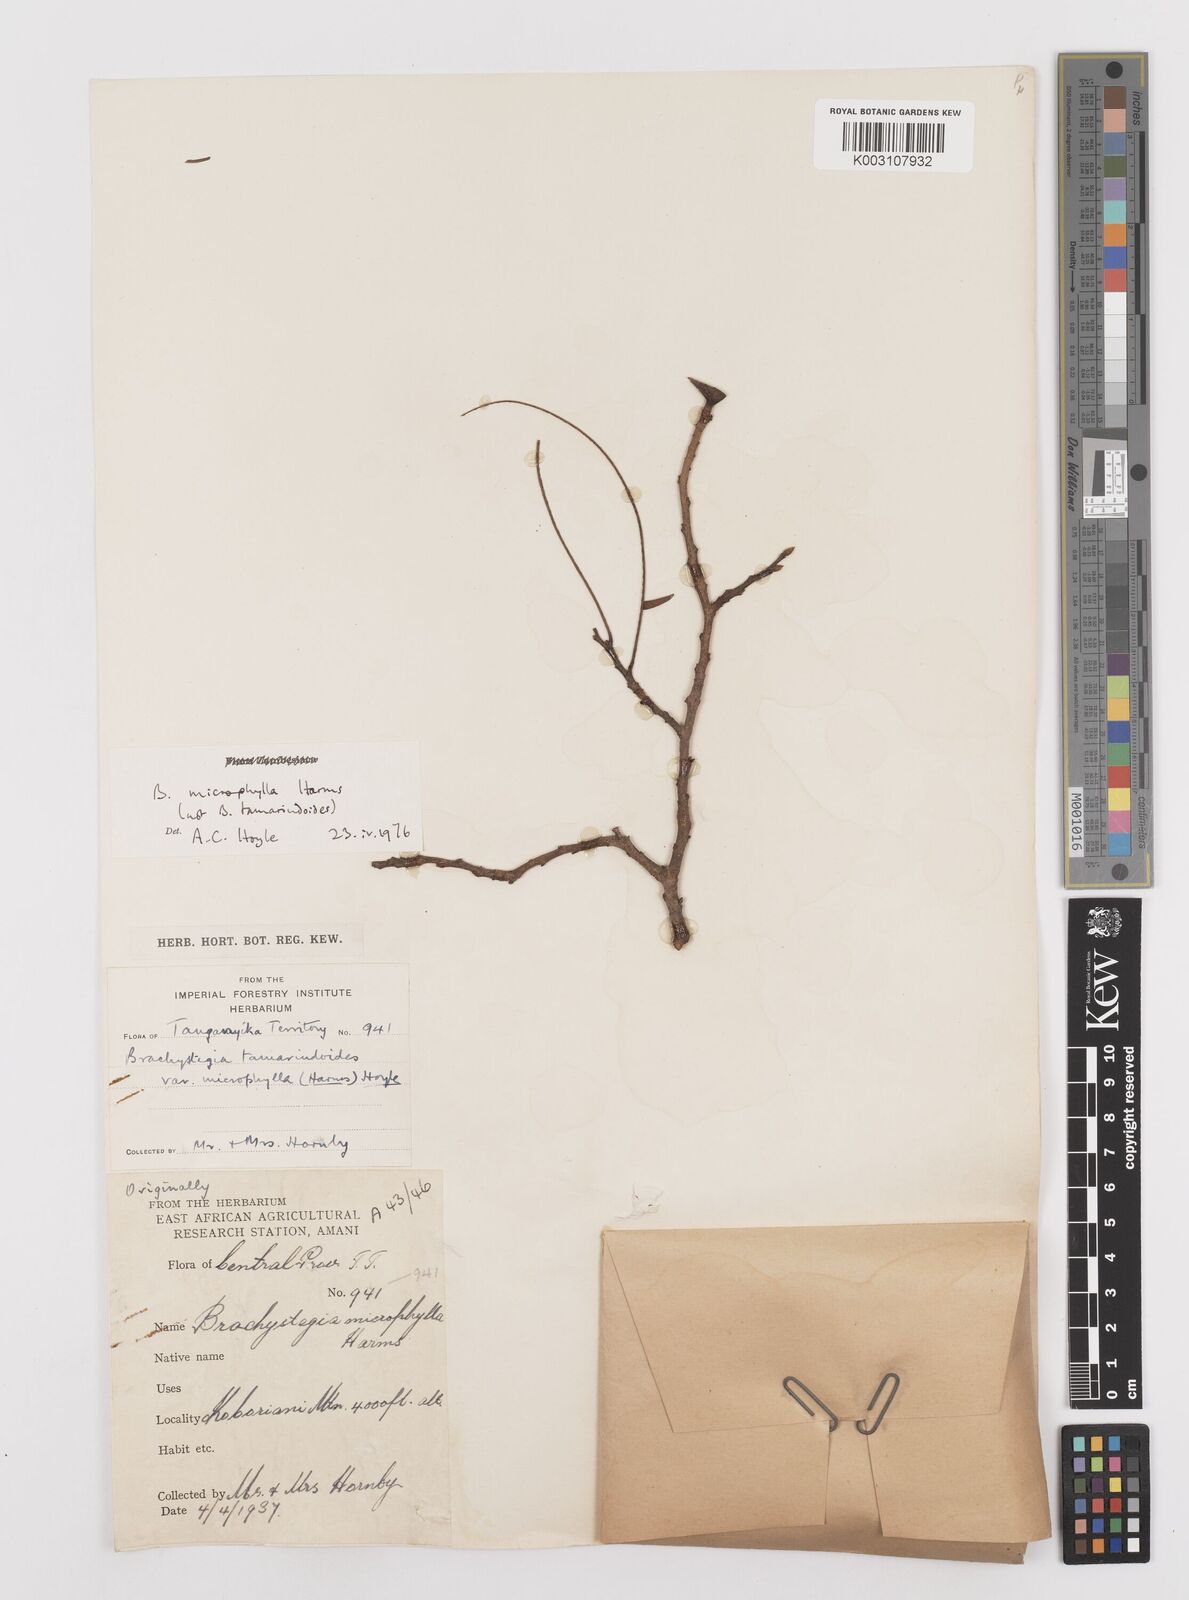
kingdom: Plantae
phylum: Tracheophyta
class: Magnoliopsida
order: Fabales
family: Fabaceae
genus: Brachystegia
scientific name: Brachystegia
